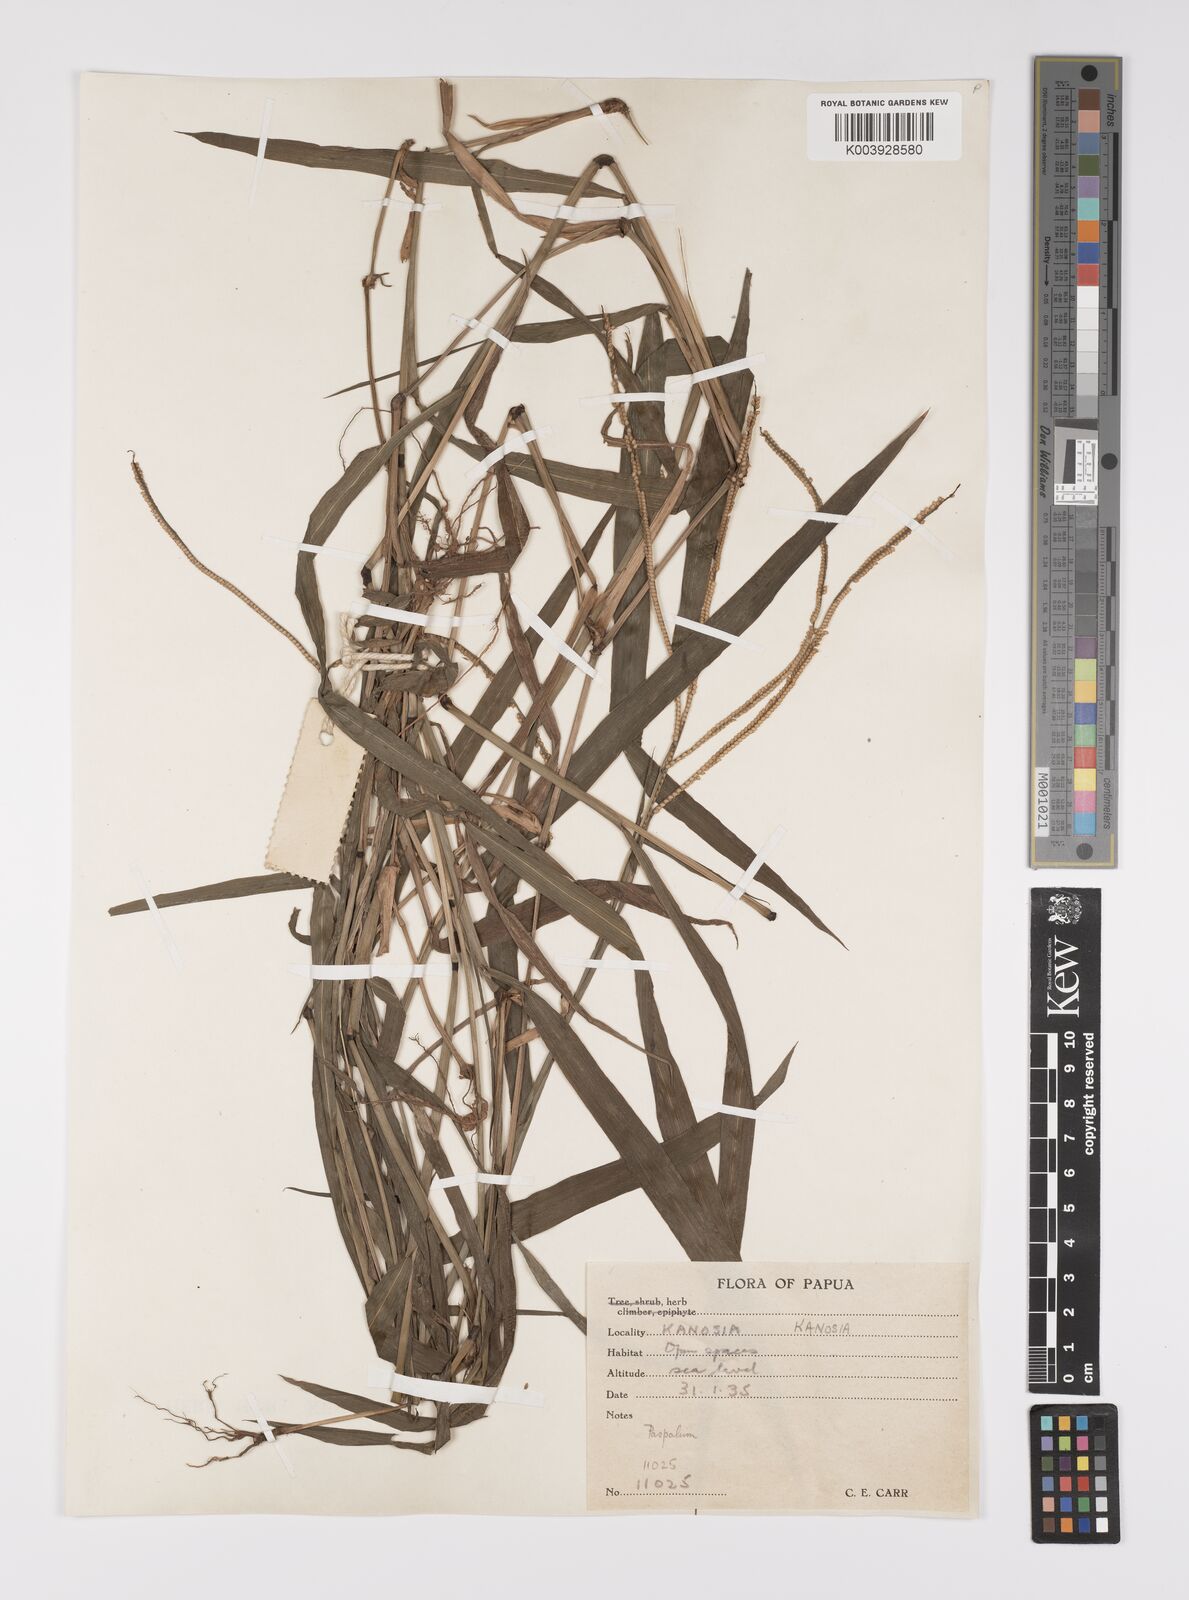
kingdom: Plantae
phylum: Tracheophyta
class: Liliopsida
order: Poales
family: Poaceae
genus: Paspalum
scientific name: Paspalum conjugatum
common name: Hilograss
